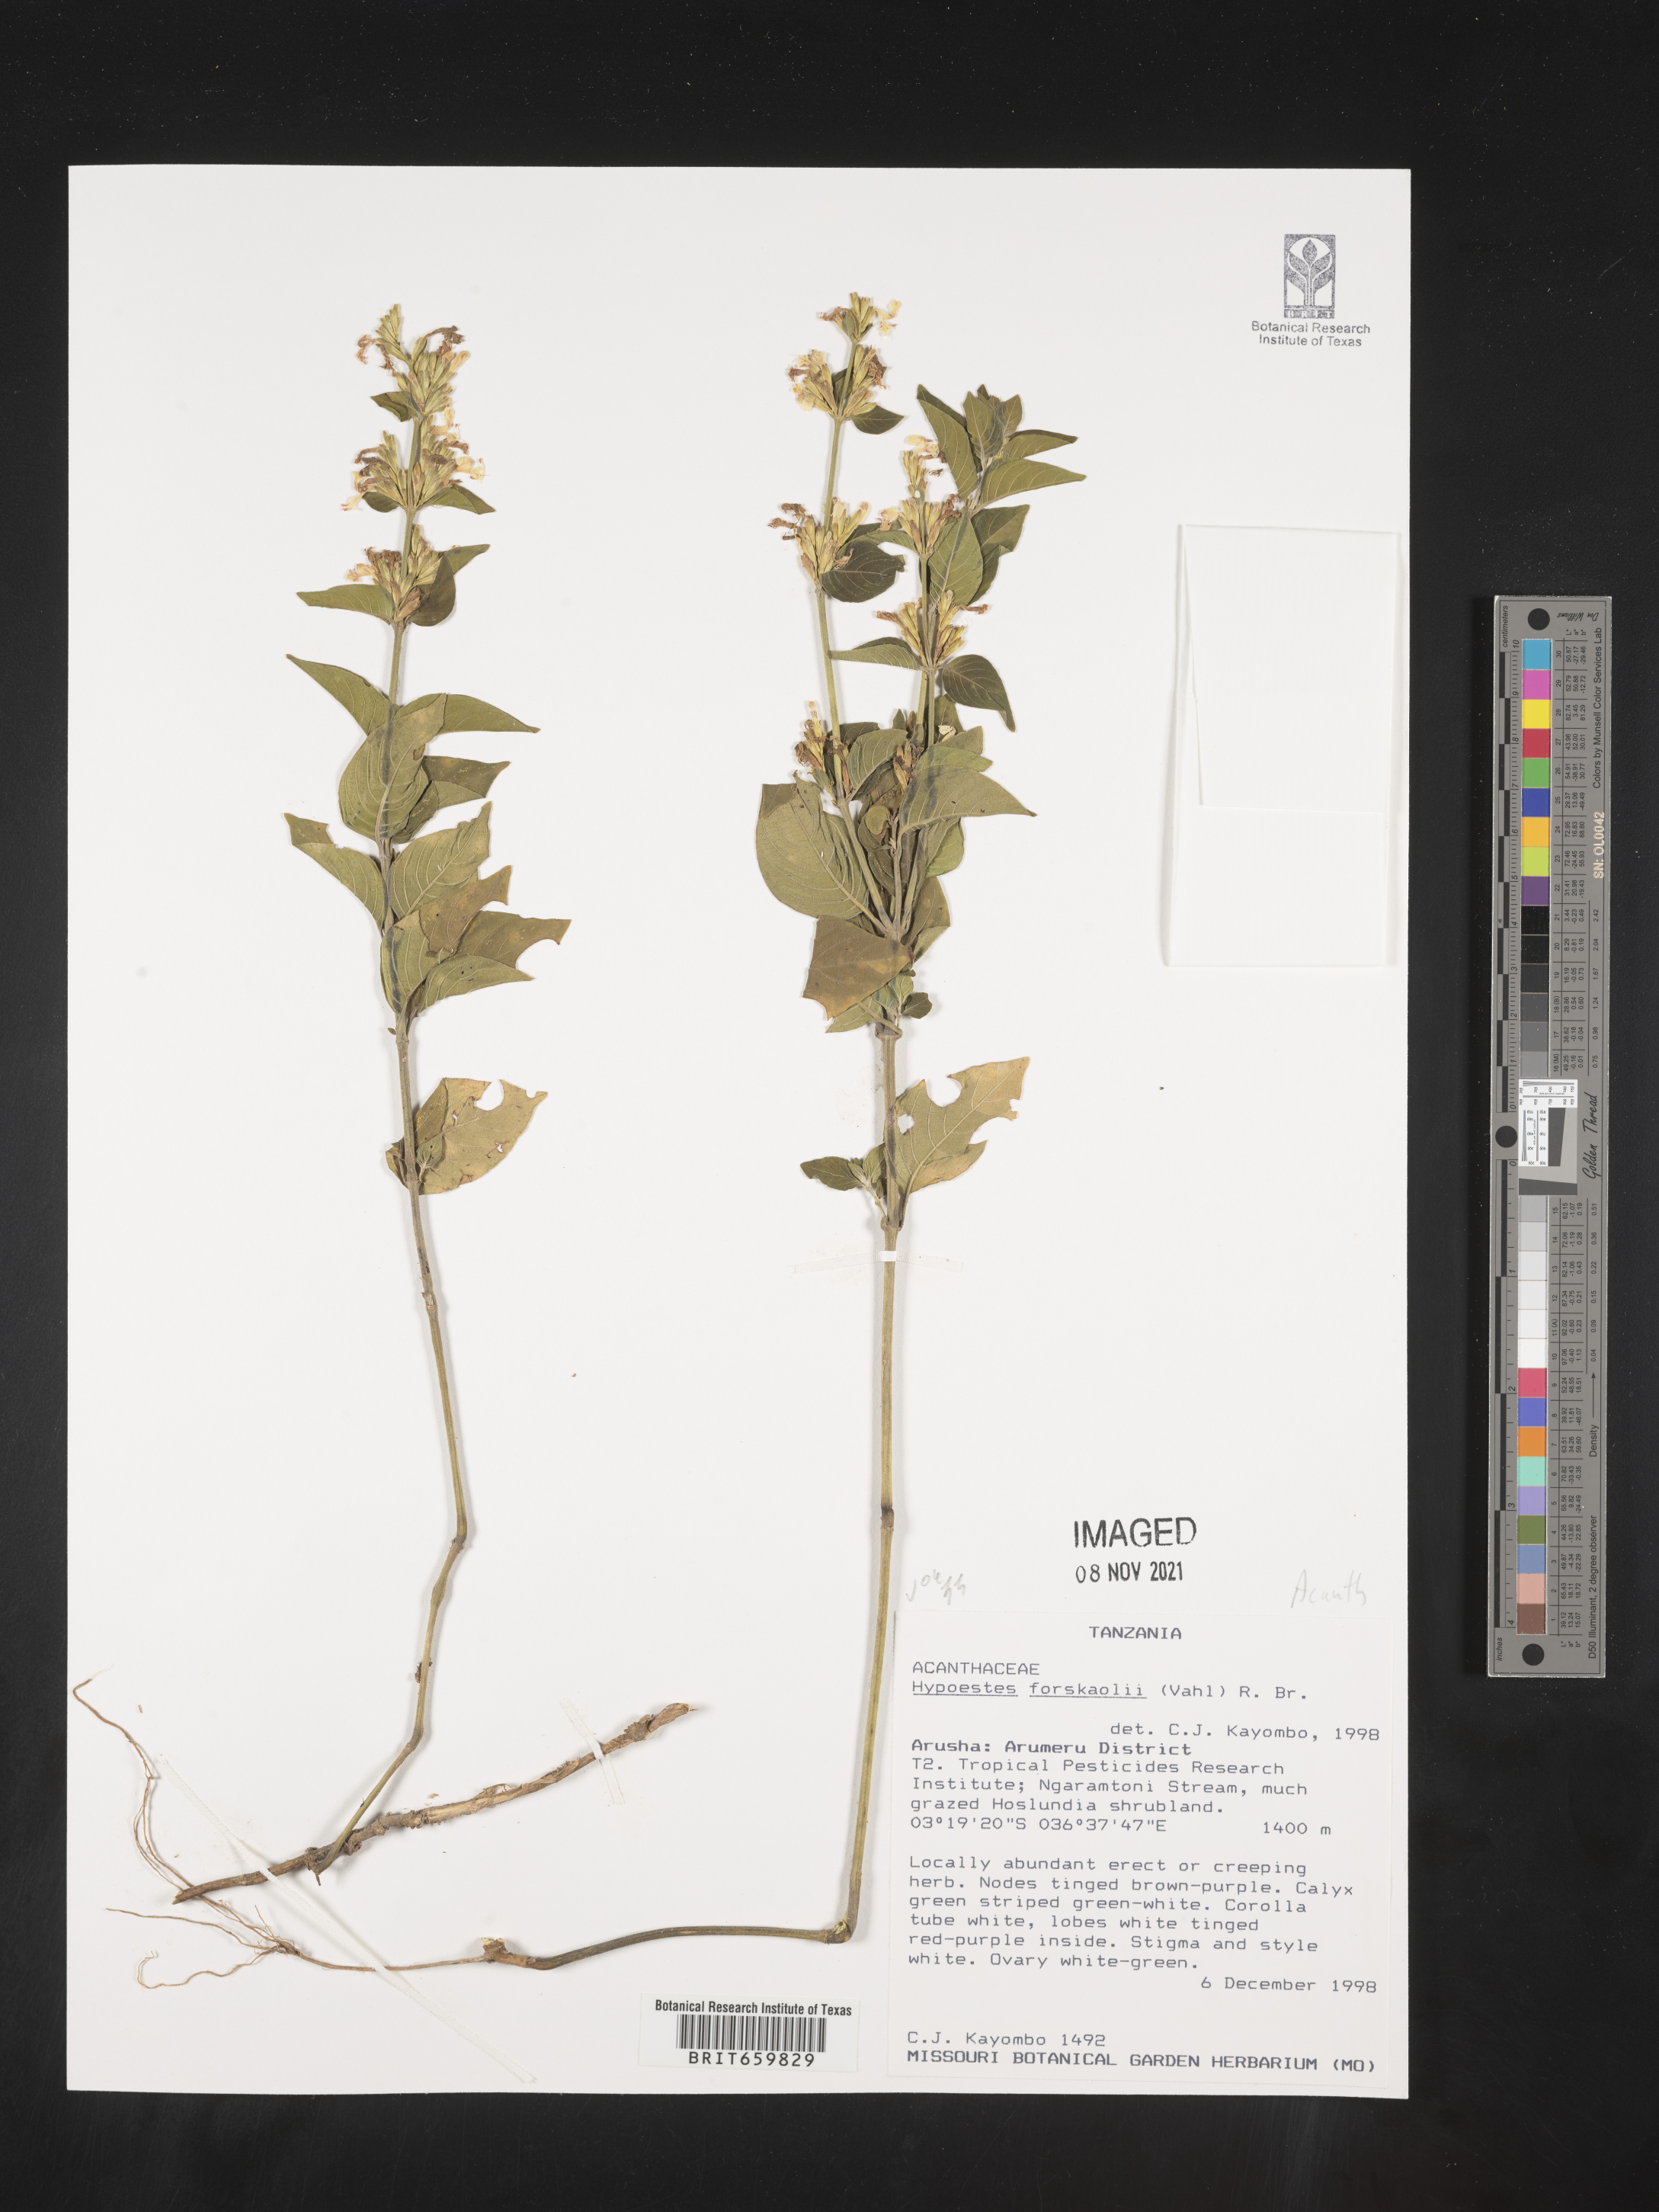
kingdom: Plantae
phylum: Tracheophyta
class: Magnoliopsida
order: Lamiales
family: Acanthaceae
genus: Hypoestes
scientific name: Hypoestes forskaolii
